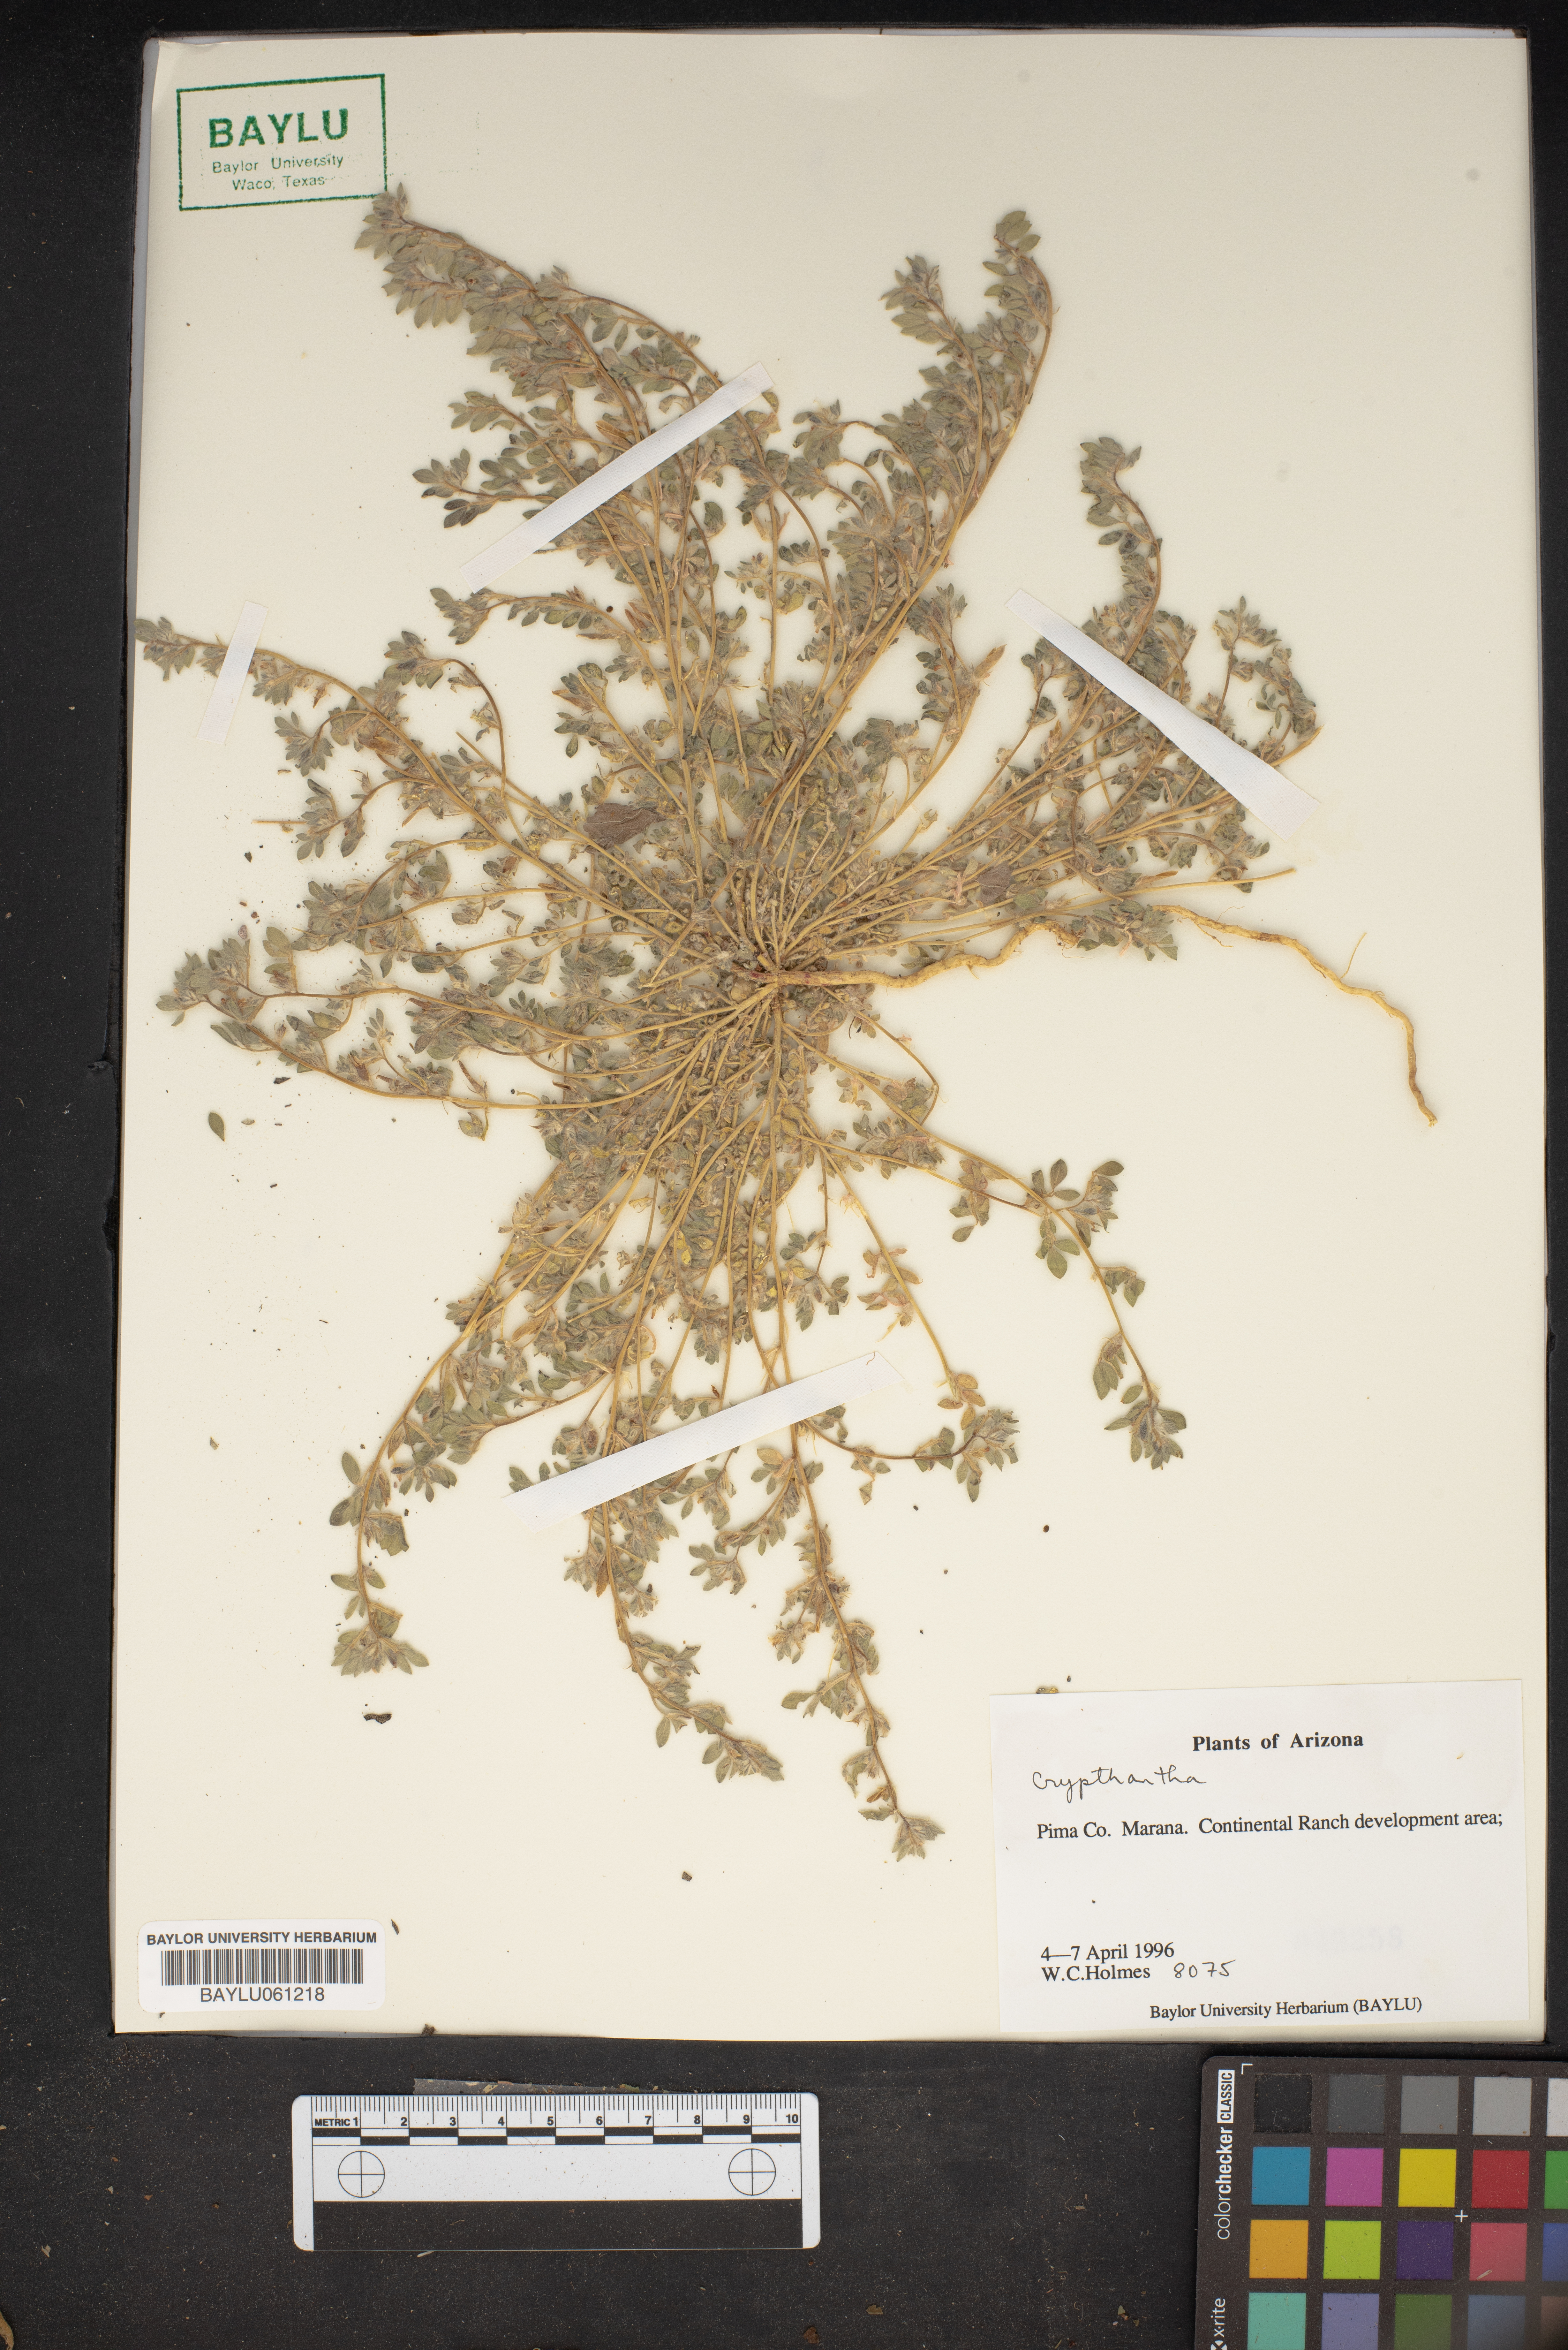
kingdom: Plantae
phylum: Tracheophyta
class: Magnoliopsida
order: Boraginales
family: Boraginaceae
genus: Cryptantha
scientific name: Cryptantha
